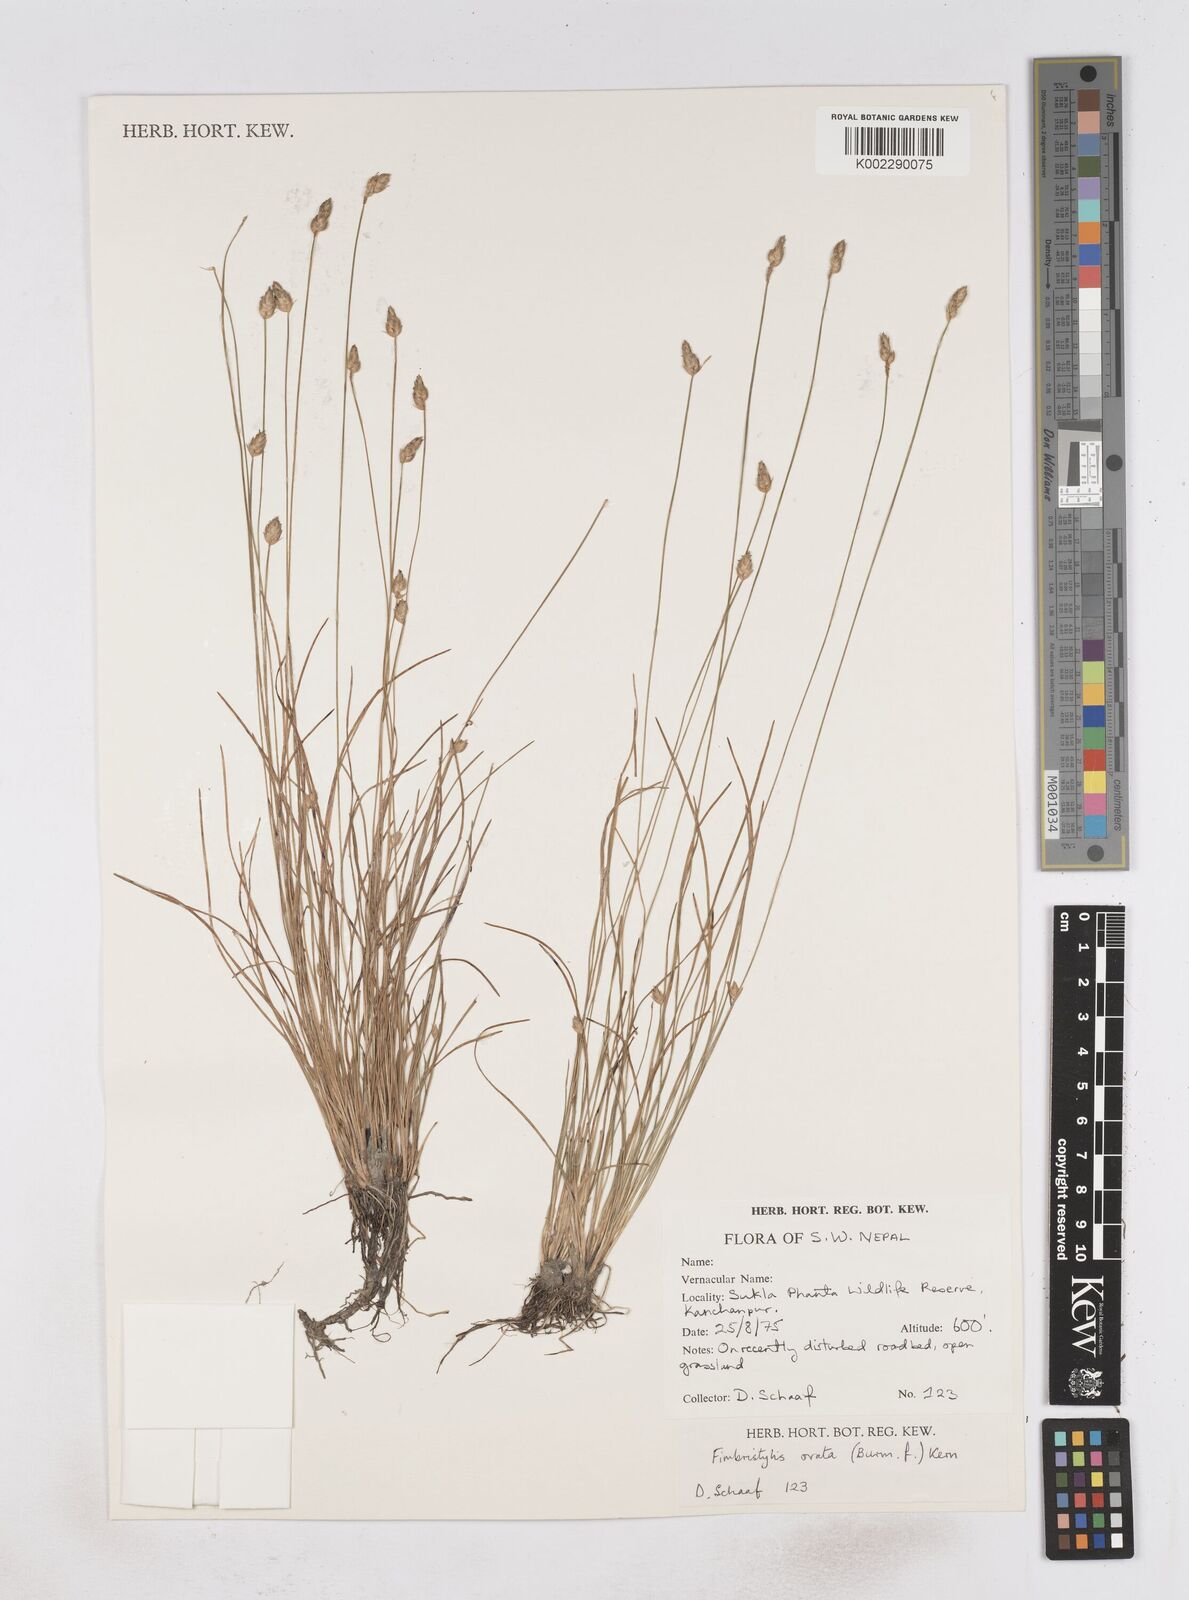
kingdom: Plantae
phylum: Tracheophyta
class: Liliopsida
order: Poales
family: Cyperaceae
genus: Abildgaardia
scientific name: Abildgaardia ovata
